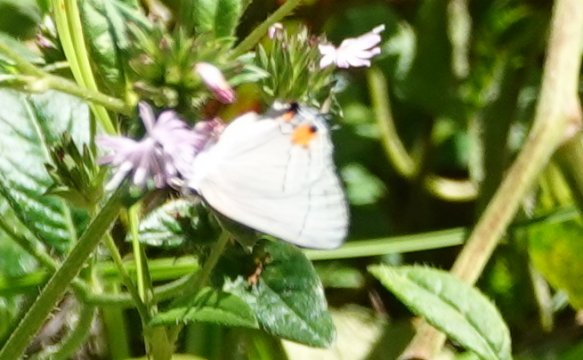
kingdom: Animalia
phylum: Arthropoda
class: Insecta
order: Lepidoptera
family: Lycaenidae
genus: Strymon
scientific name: Strymon melinus
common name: Gray Hairstreak
